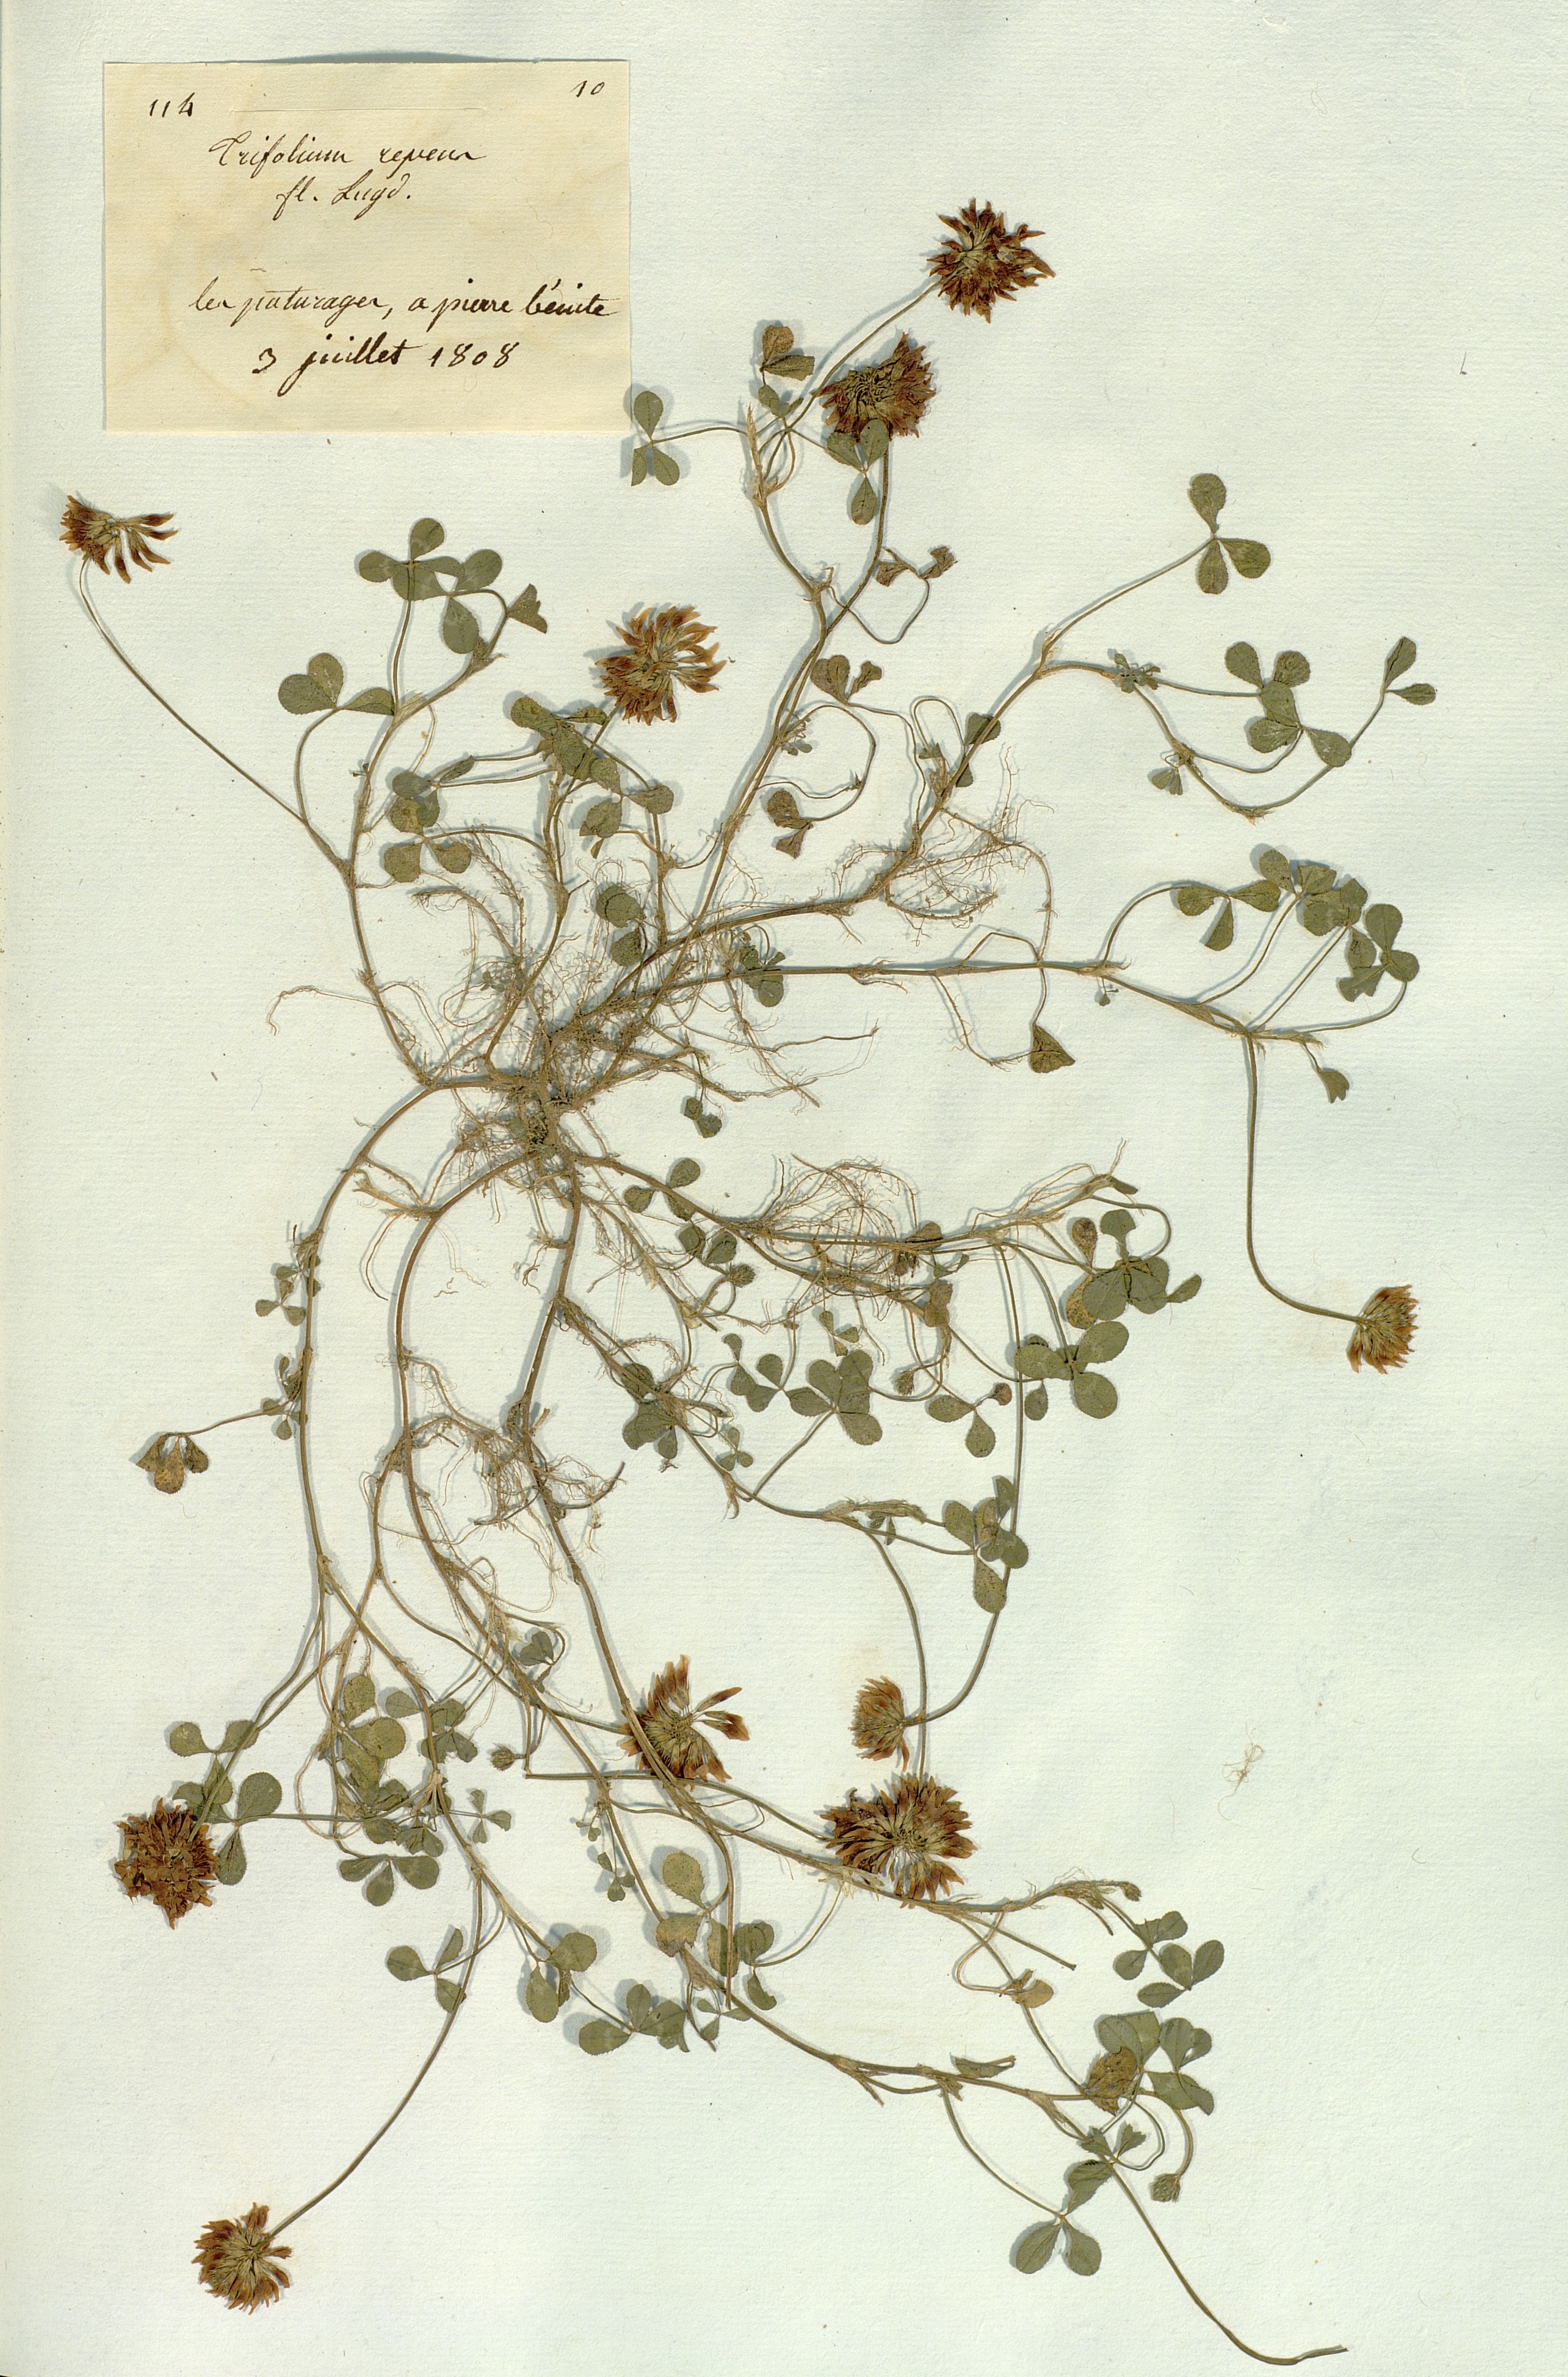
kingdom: Plantae
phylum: Tracheophyta
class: Magnoliopsida
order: Fabales
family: Fabaceae
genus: Trifolium
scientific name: Trifolium repens
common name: White clover
